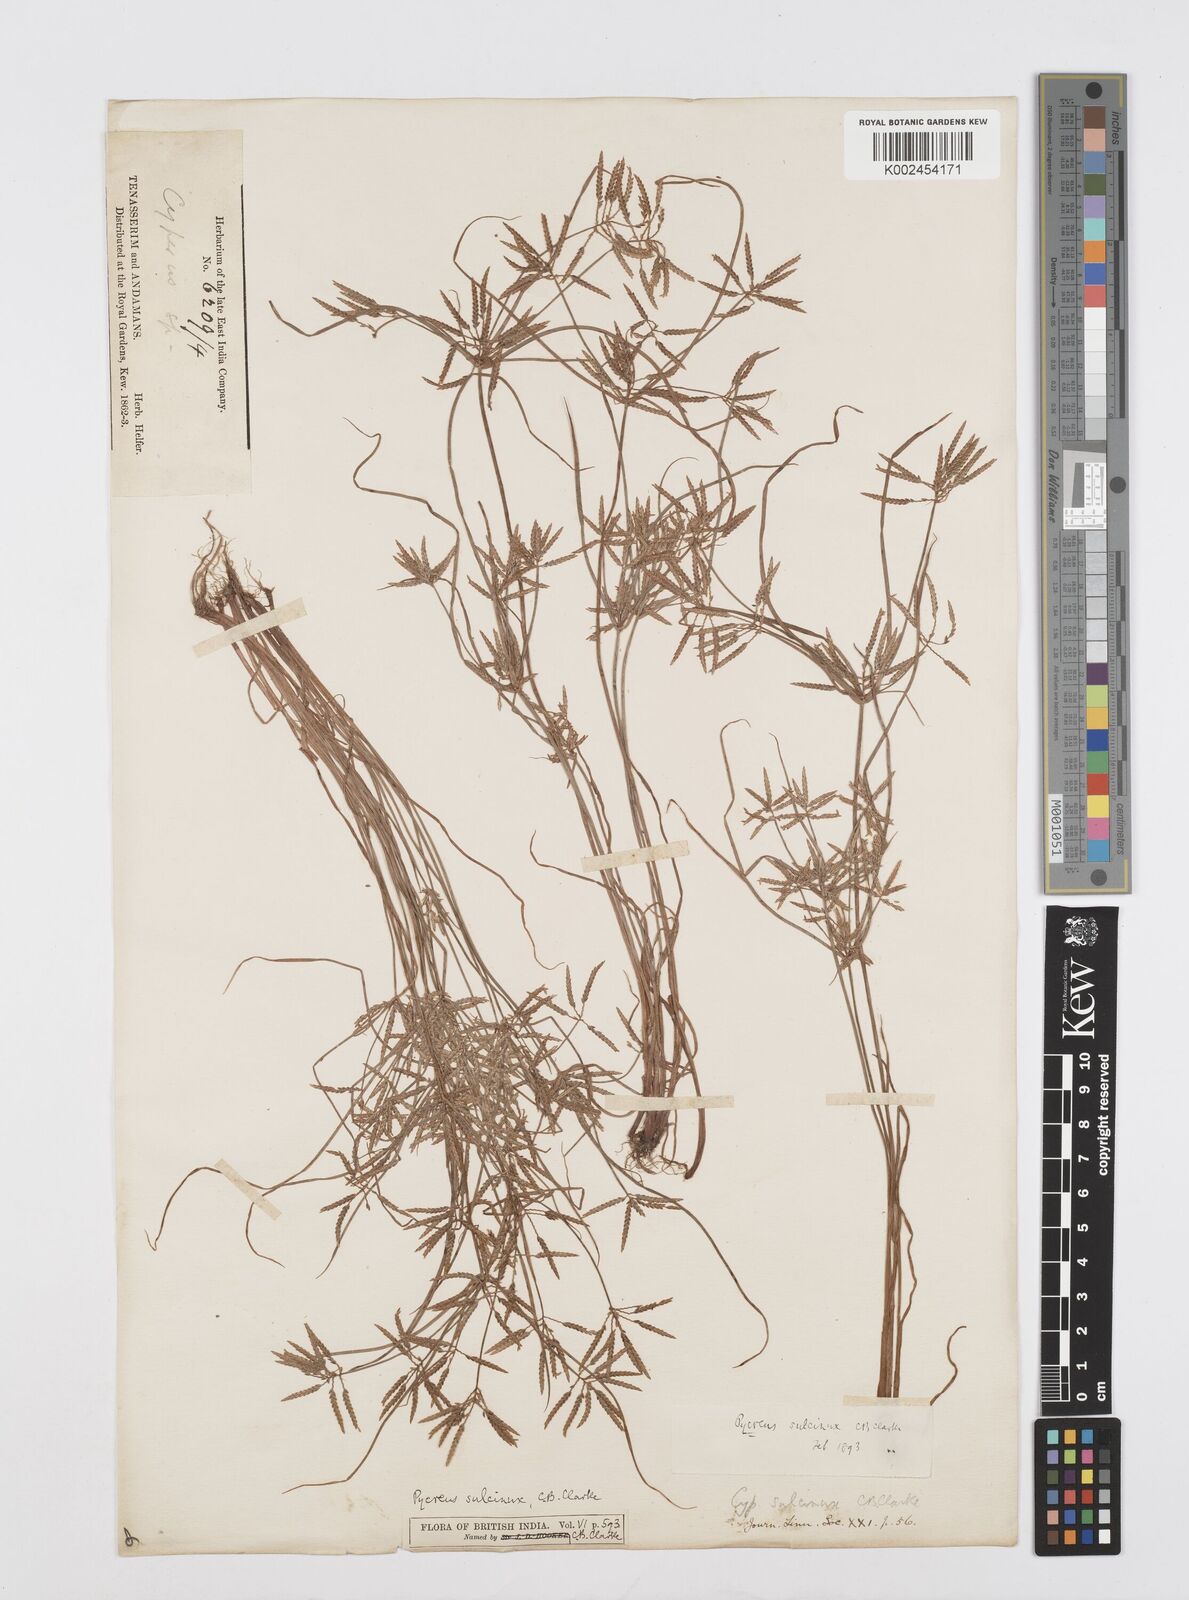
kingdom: Plantae
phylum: Tracheophyta
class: Liliopsida
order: Poales
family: Cyperaceae
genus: Cyperus
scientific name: Cyperus sulcinux
